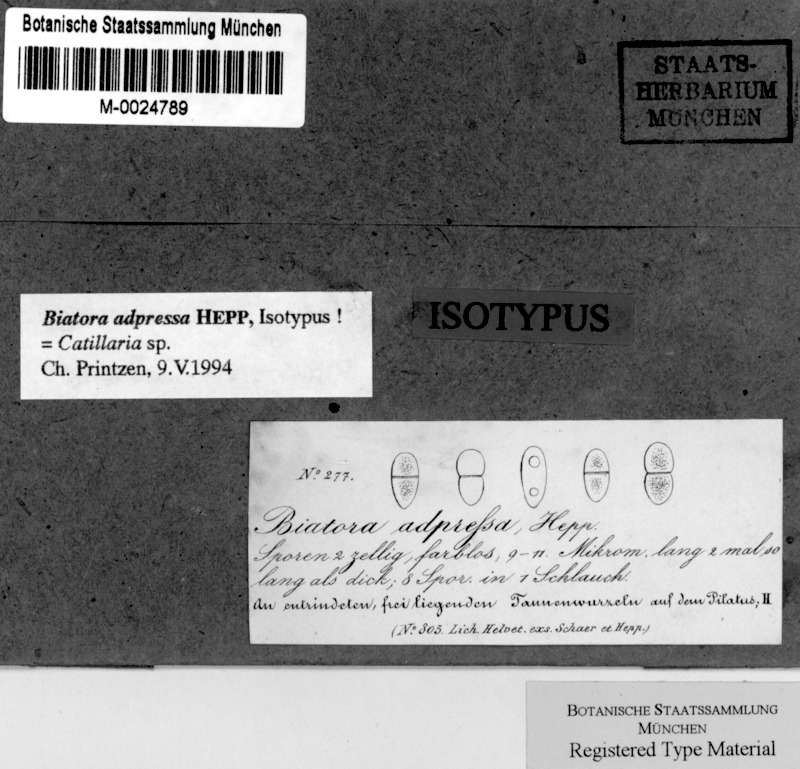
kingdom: Fungi
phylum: Ascomycota
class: Lecanoromycetes
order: Lecanorales
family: Ramalinaceae
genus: Biatora
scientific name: Biatora
